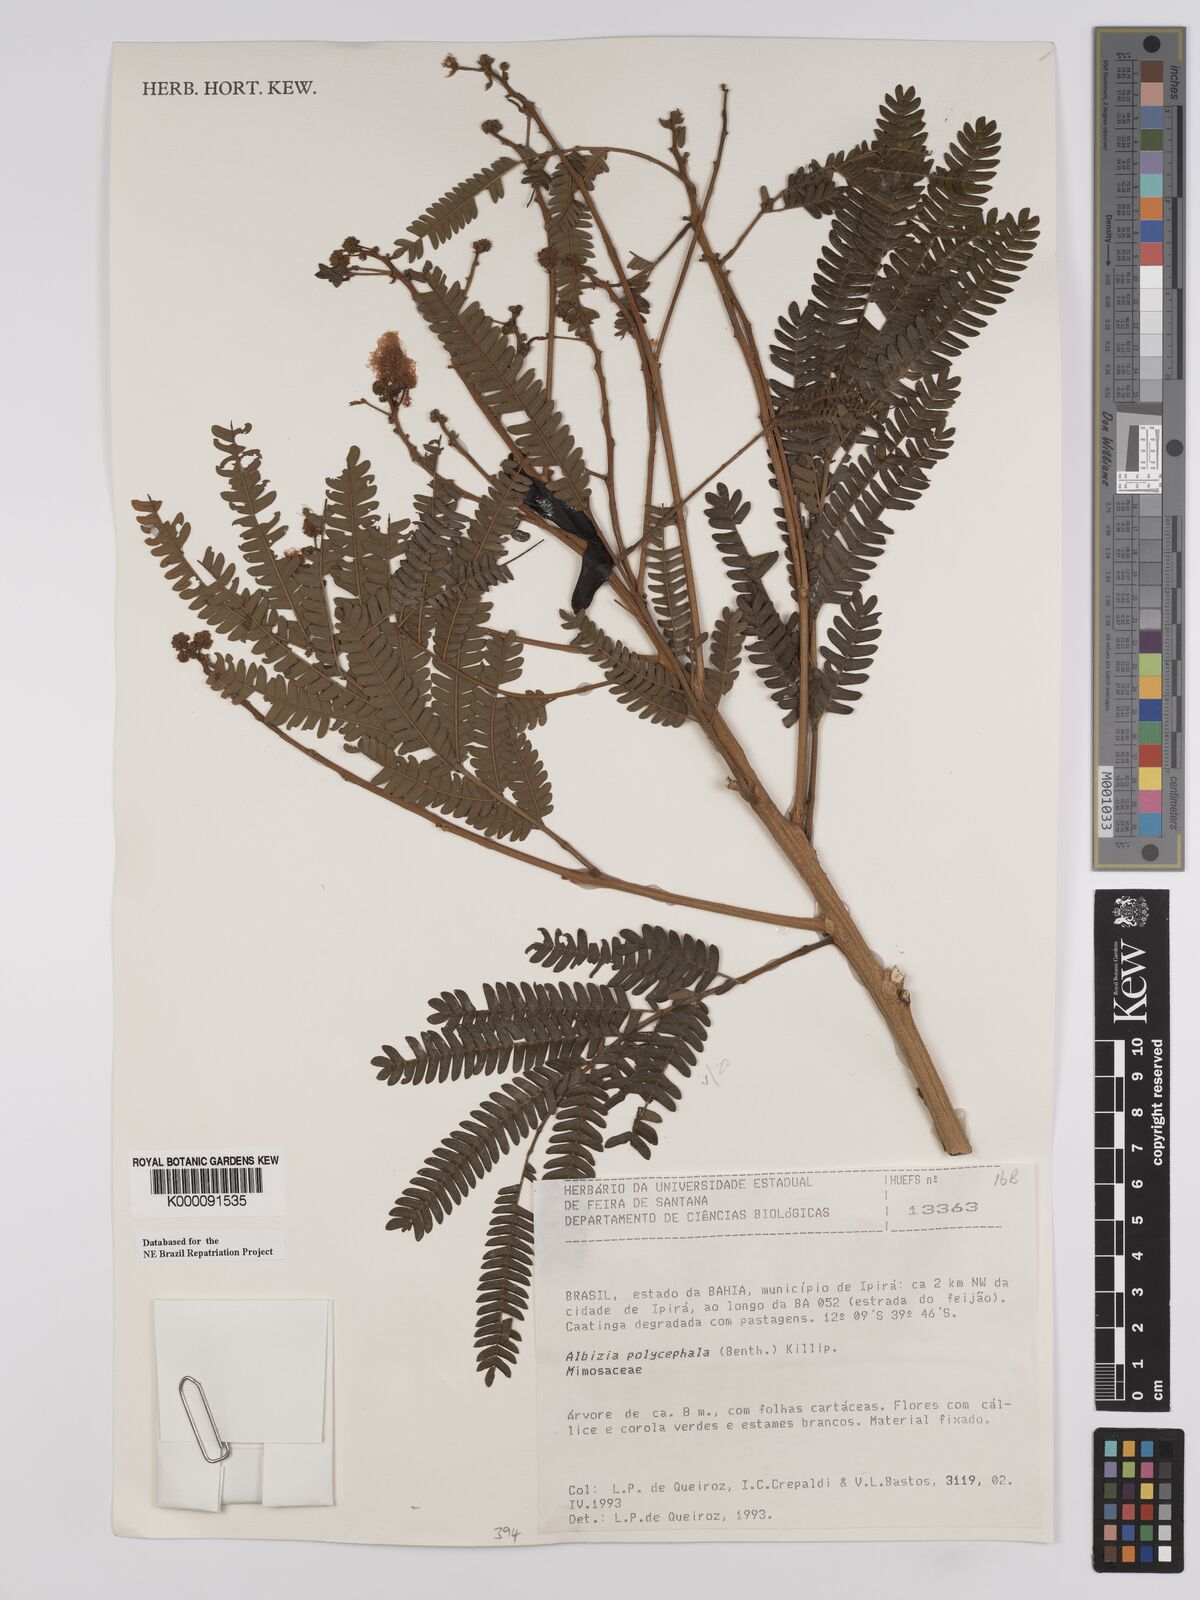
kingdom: Plantae
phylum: Tracheophyta
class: Magnoliopsida
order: Fabales
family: Fabaceae
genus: Albizia
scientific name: Albizia polycephala
